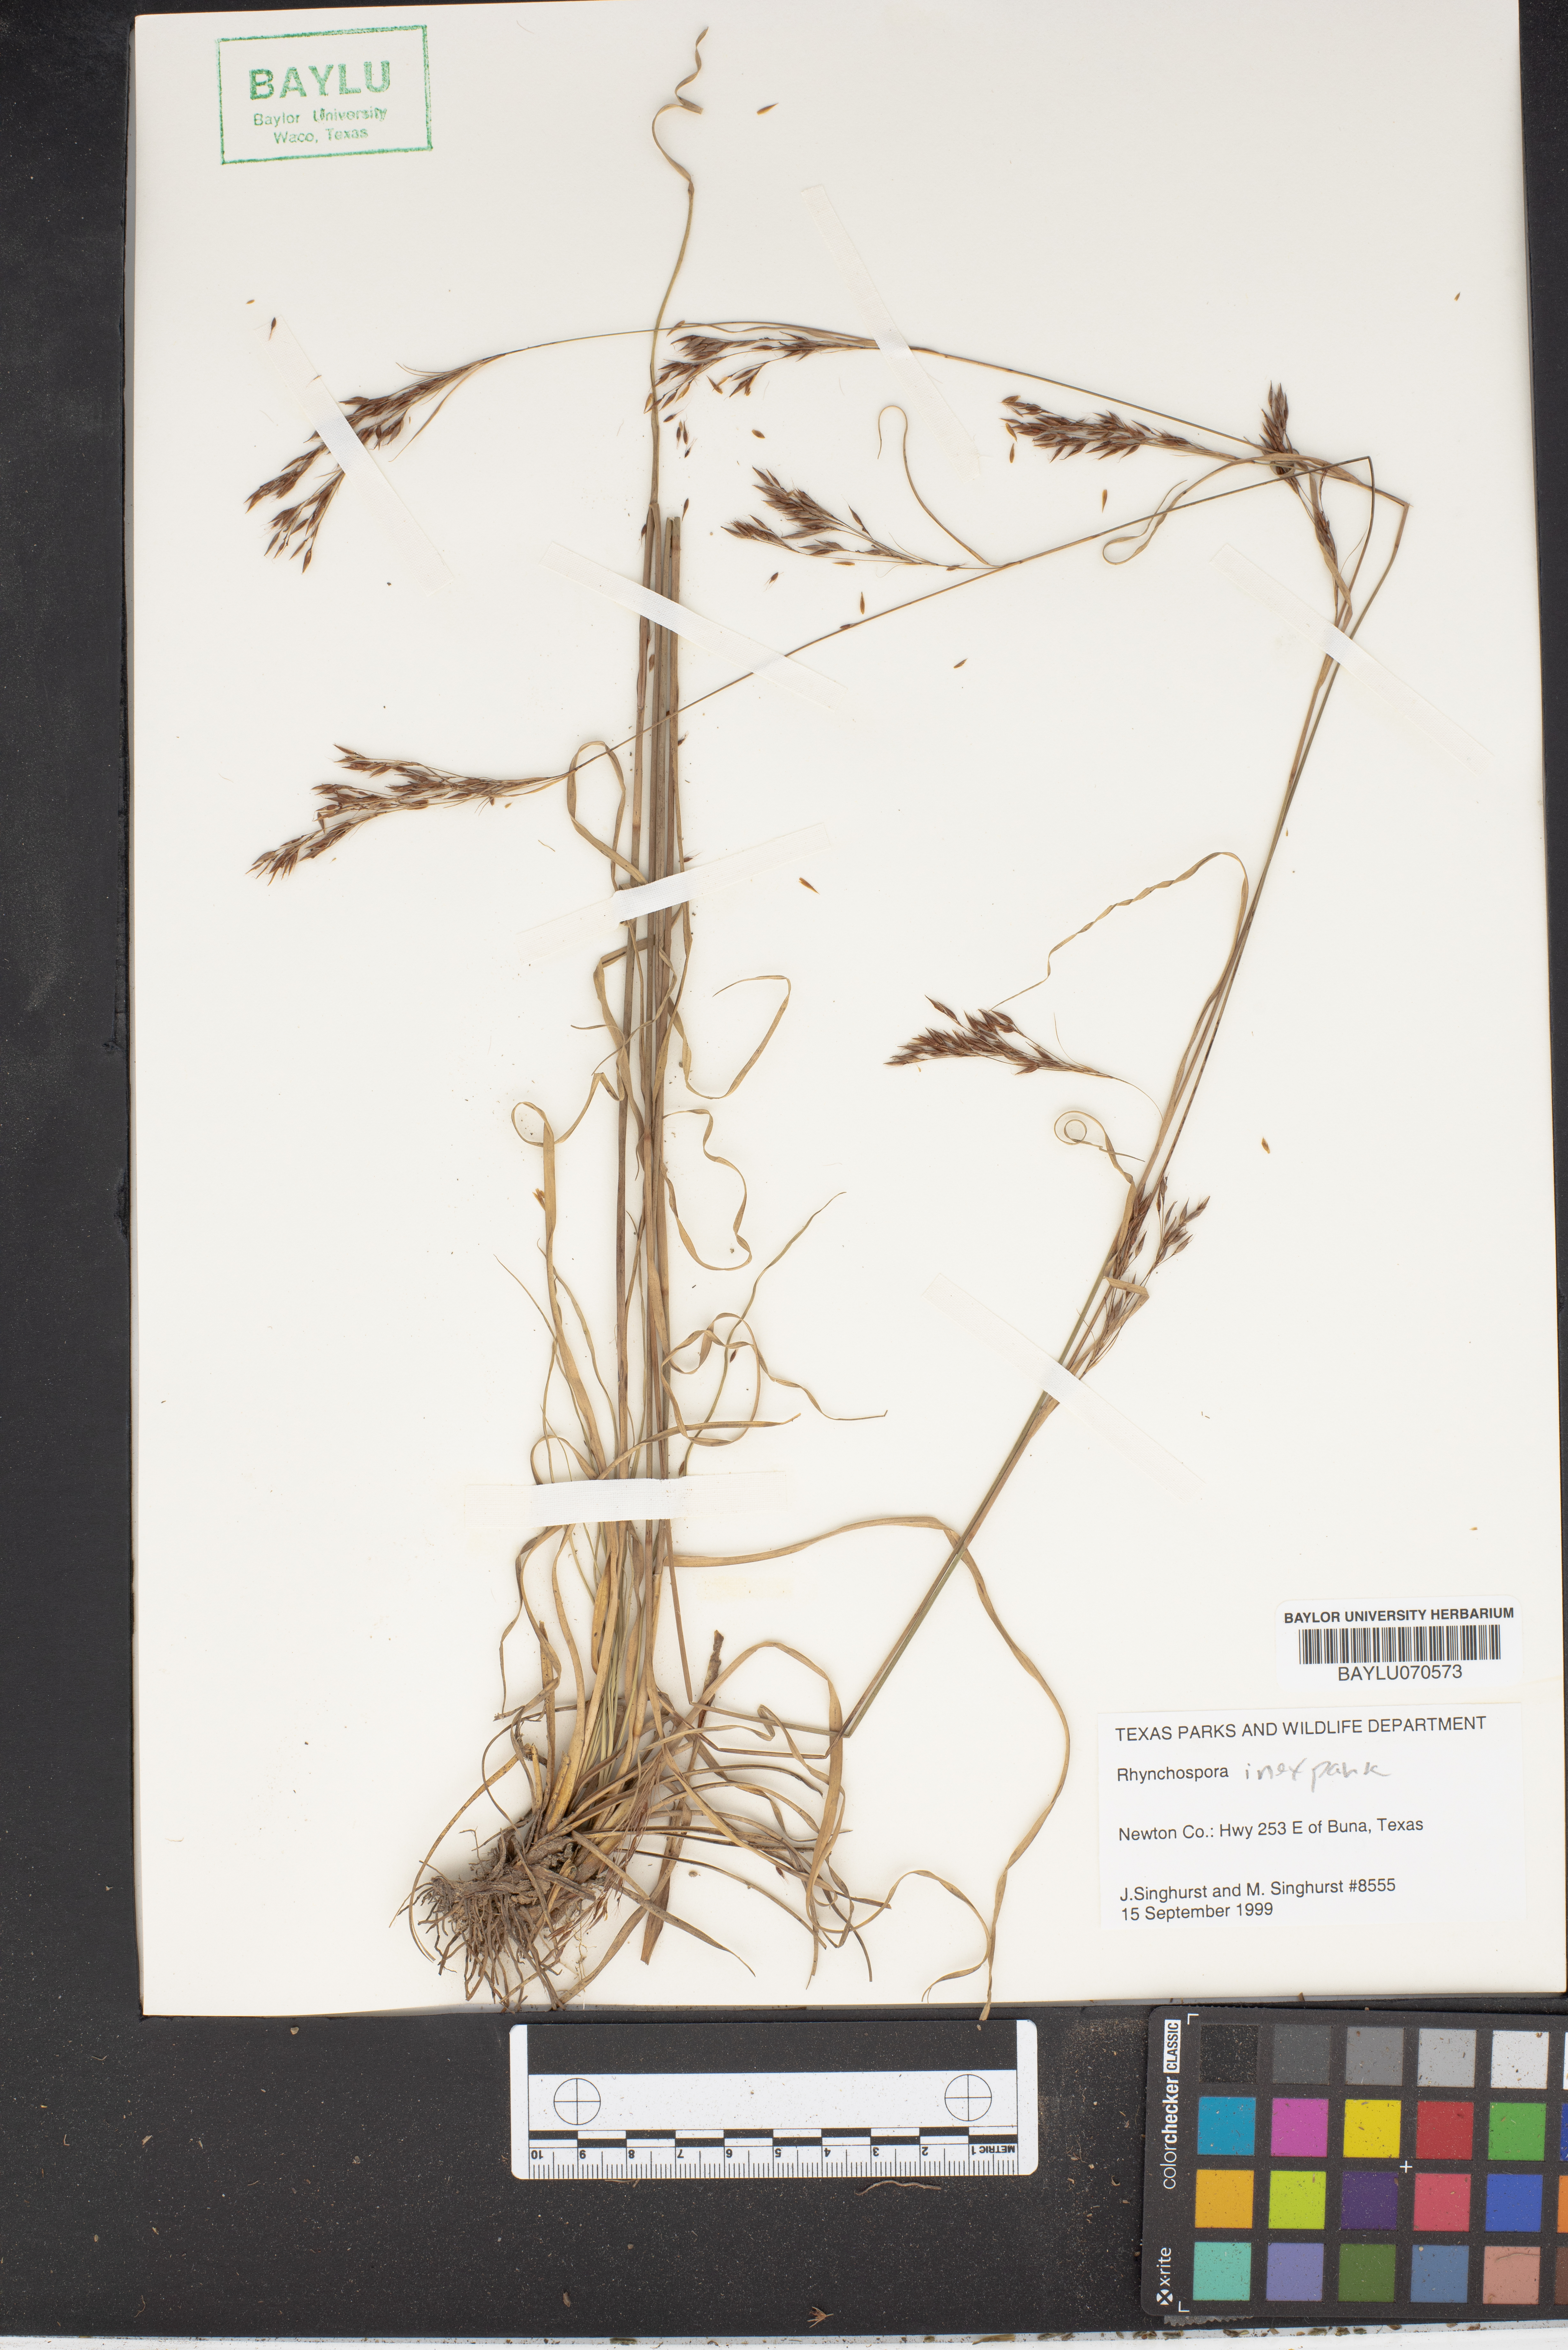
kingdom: Plantae
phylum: Tracheophyta
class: Liliopsida
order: Poales
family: Cyperaceae
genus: Rhynchospora
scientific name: Rhynchospora inexpansa
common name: Nodding beaksedge
